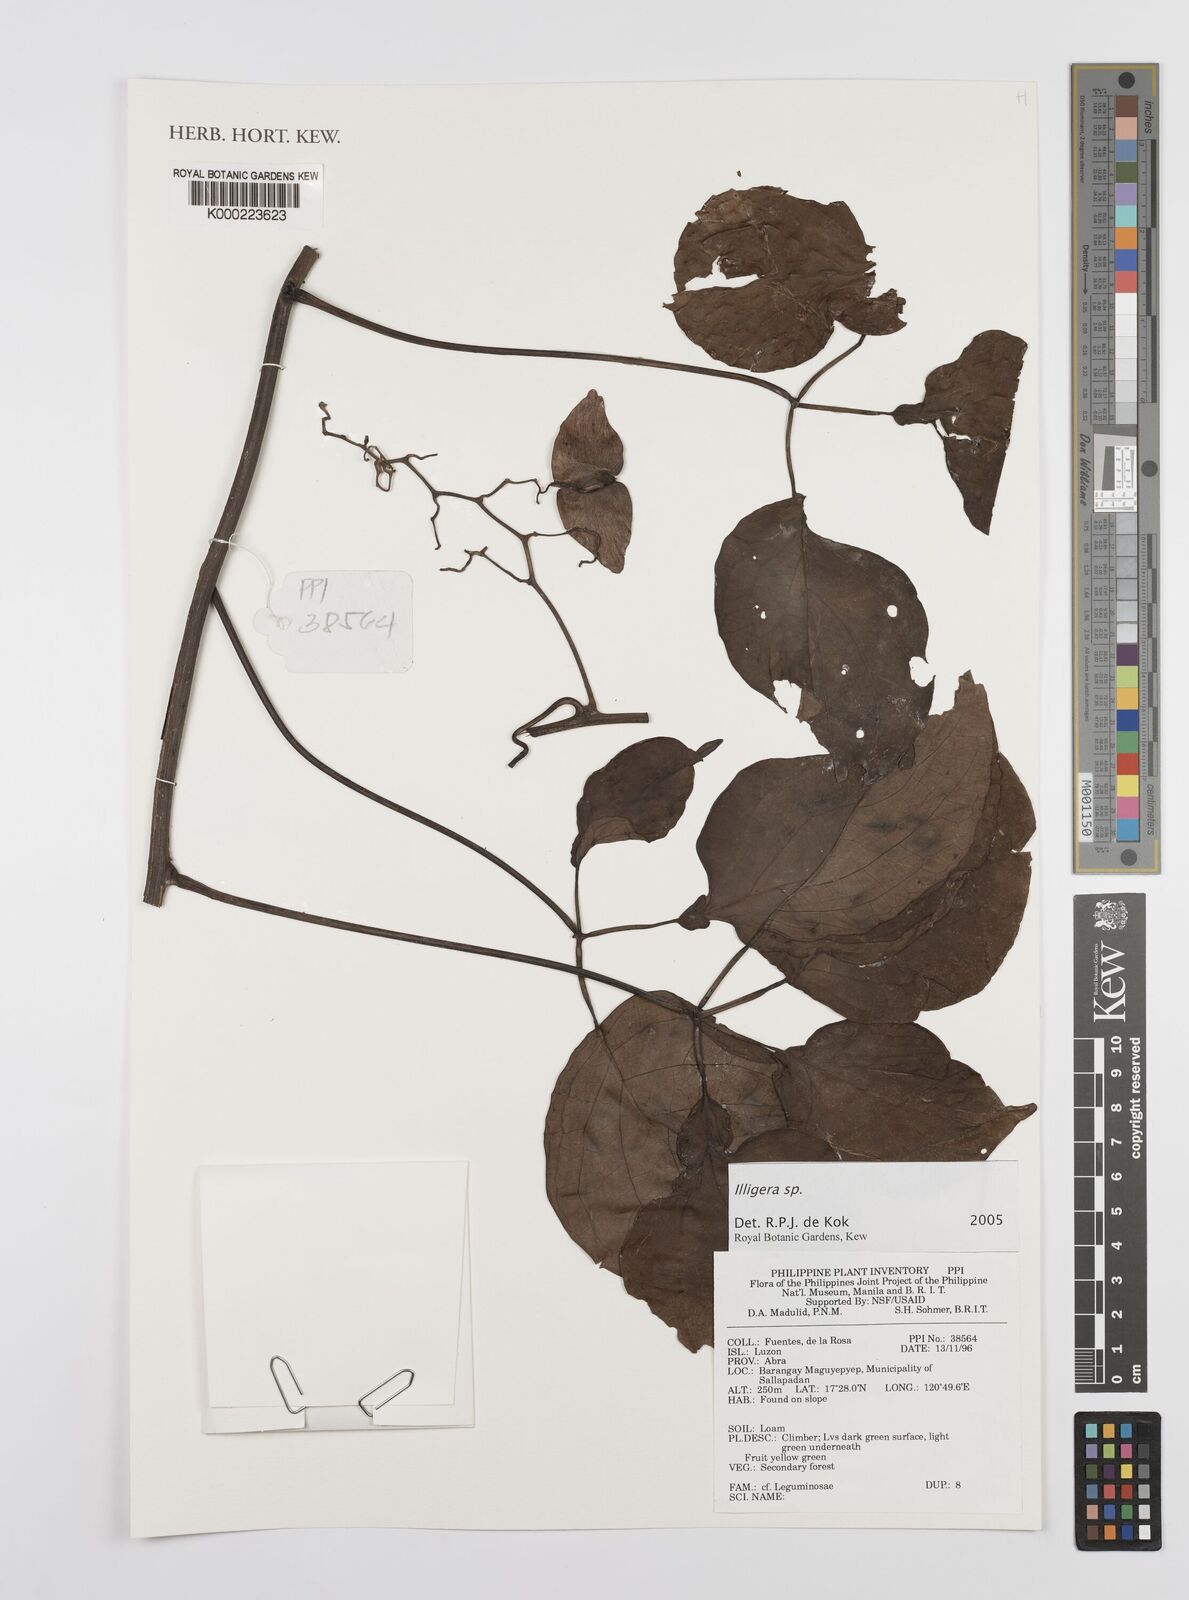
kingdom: Plantae
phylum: Tracheophyta
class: Magnoliopsida
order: Laurales
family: Hernandiaceae
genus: Illigera
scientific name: Illigera
